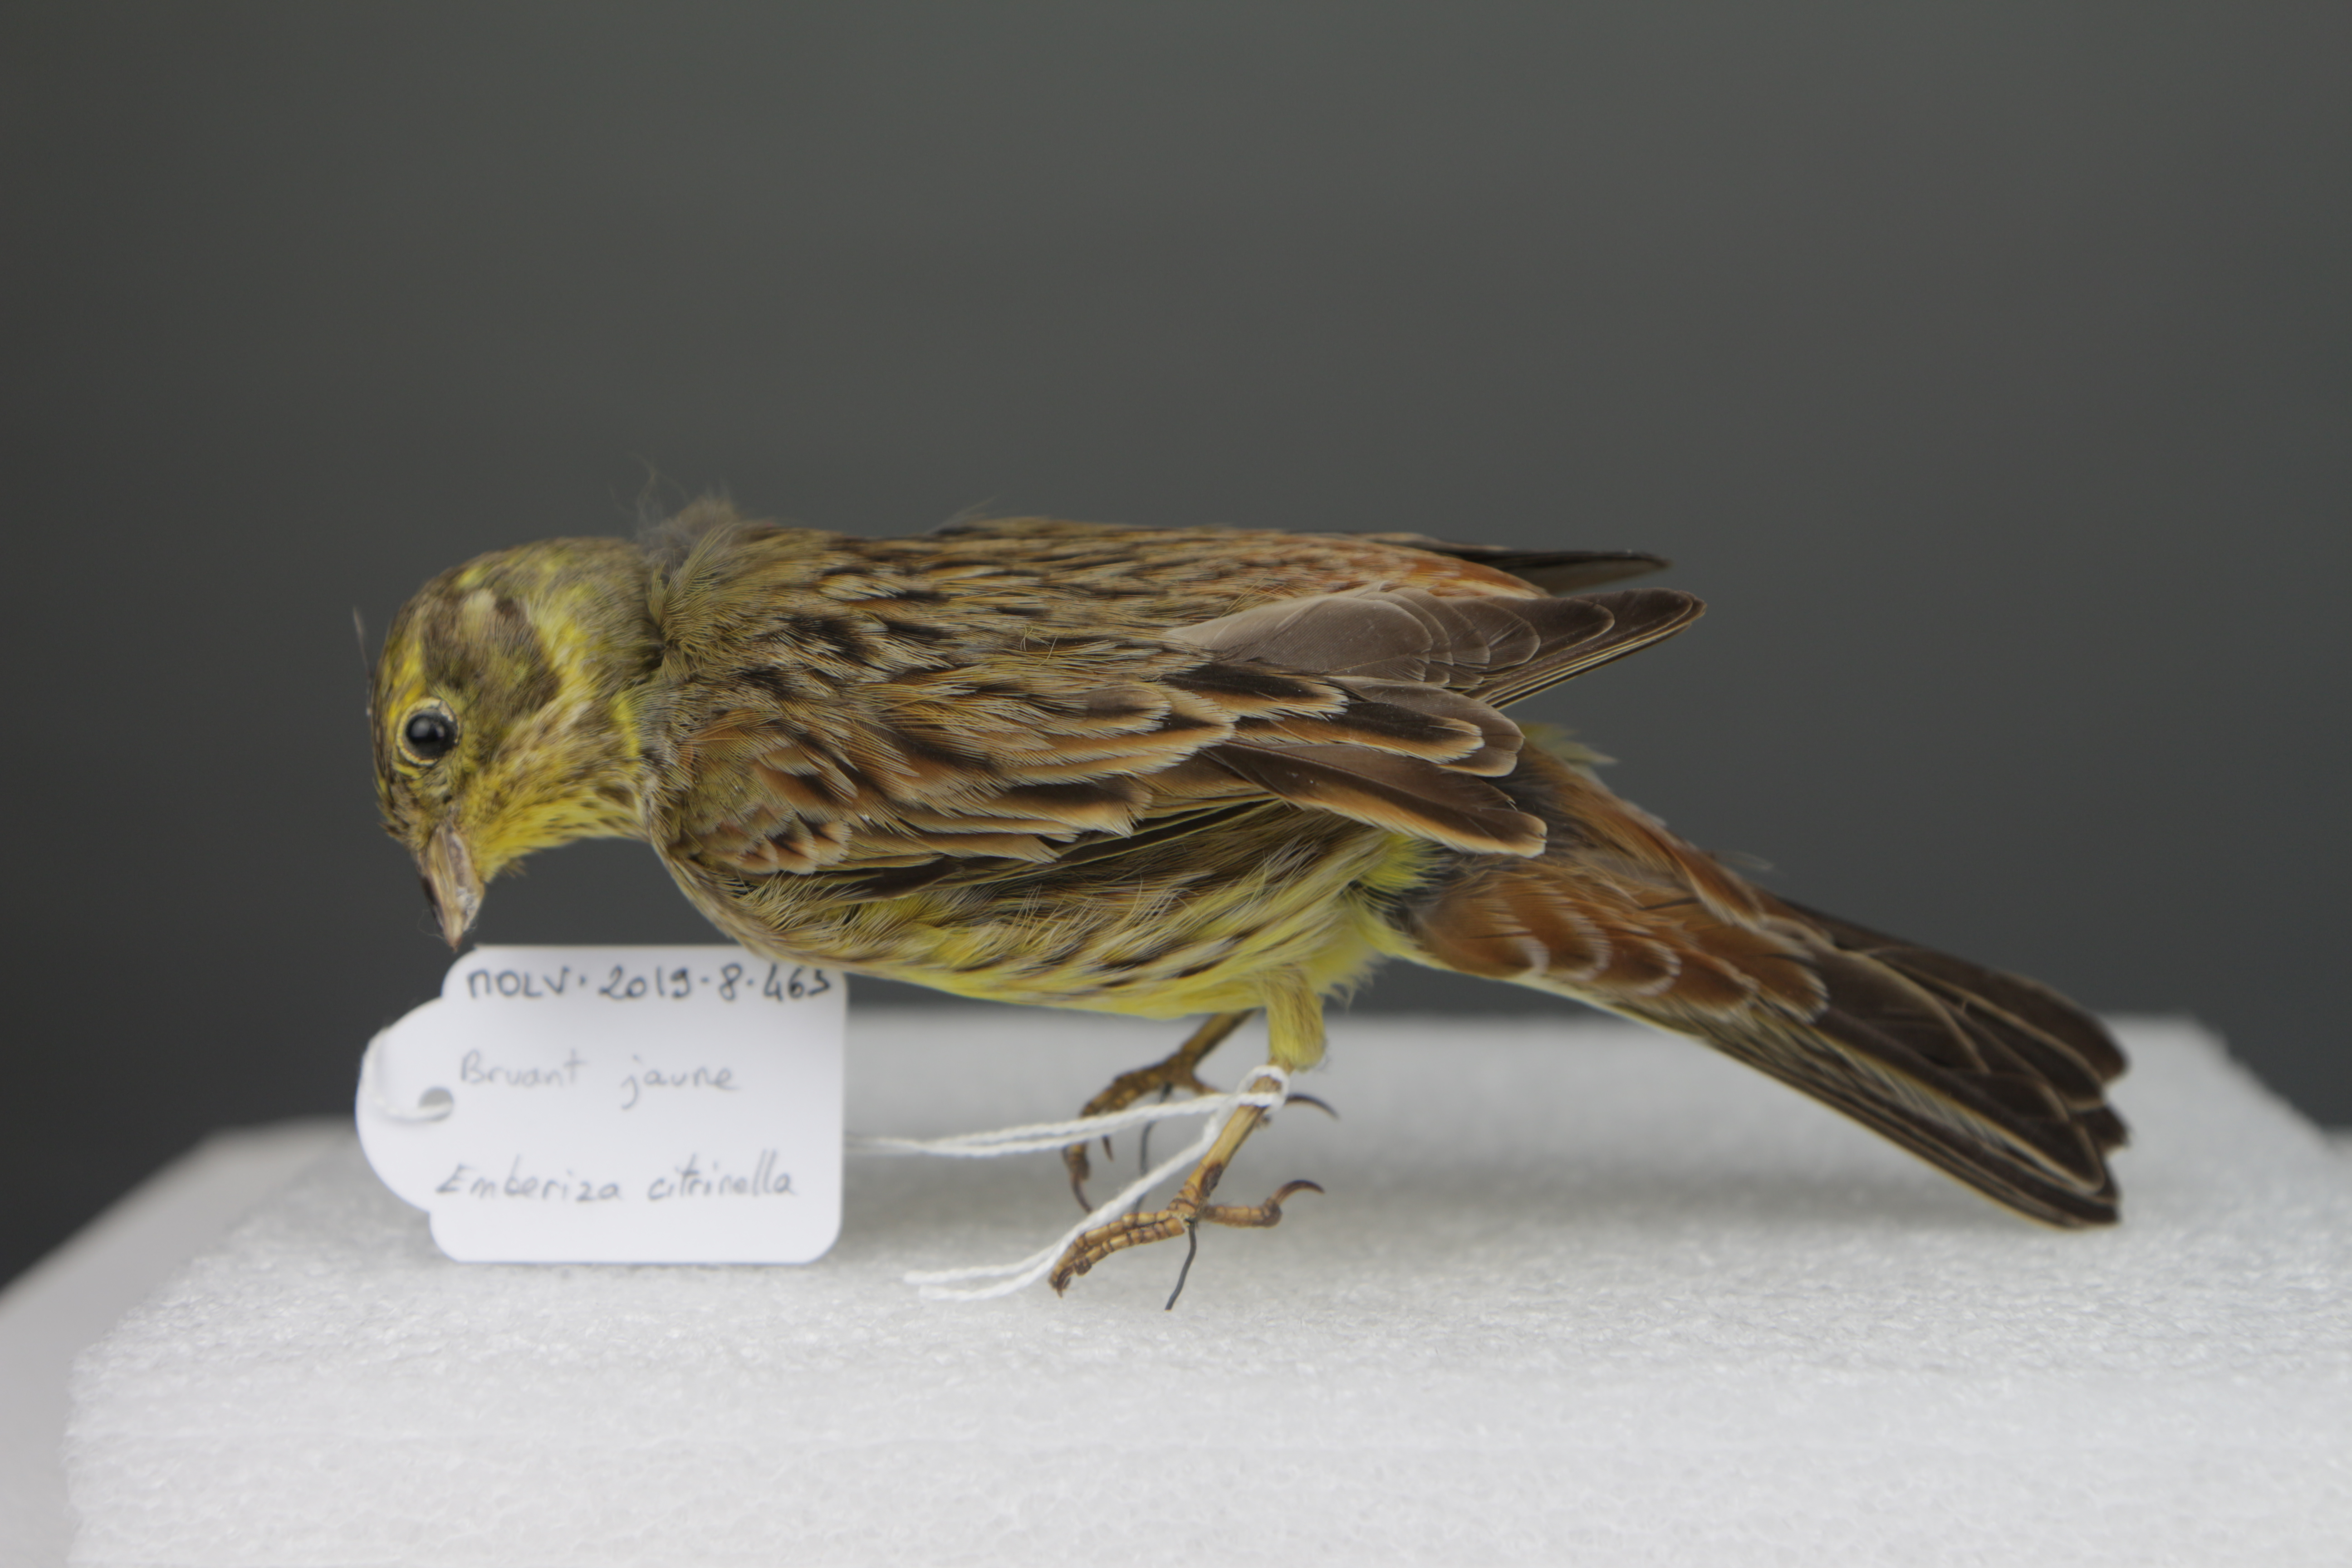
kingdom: Animalia
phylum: Chordata
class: Aves
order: Passeriformes
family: Emberizidae
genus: Emberiza
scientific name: Emberiza citrinella
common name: Yellowhammer
